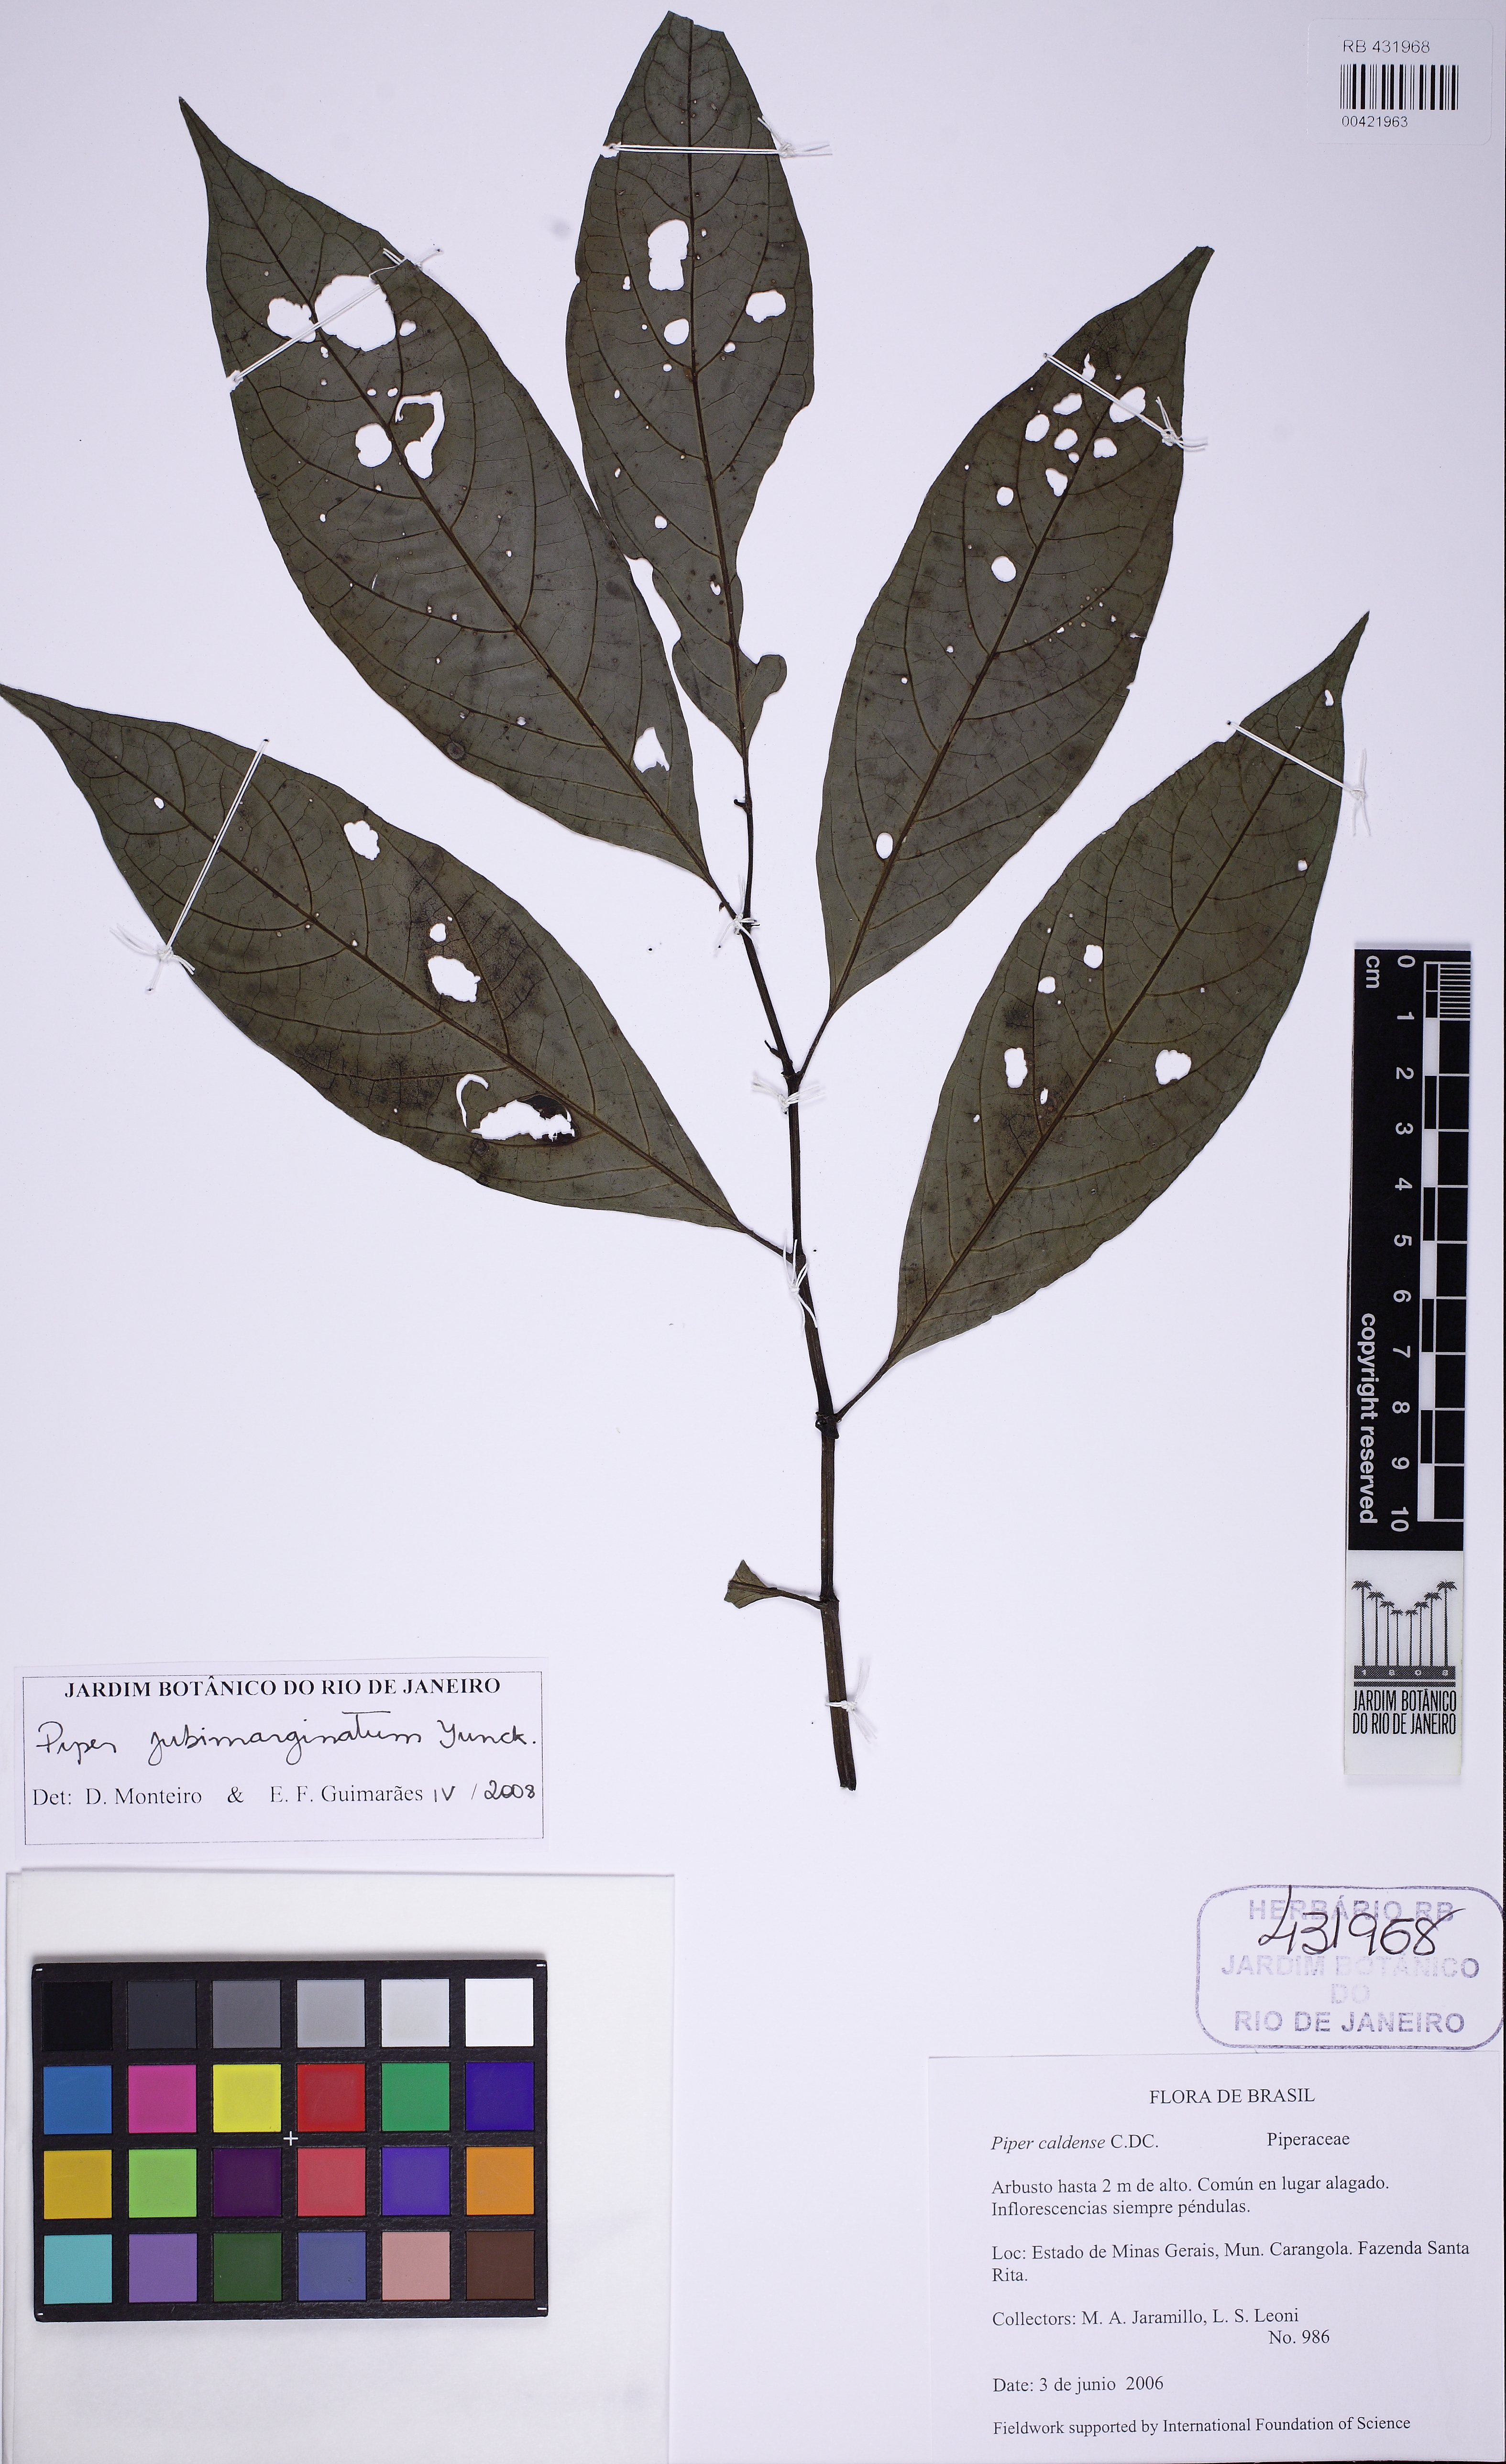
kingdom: Plantae
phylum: Tracheophyta
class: Magnoliopsida
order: Piperales
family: Piperaceae
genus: Piper
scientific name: Piper jubimarginatum
